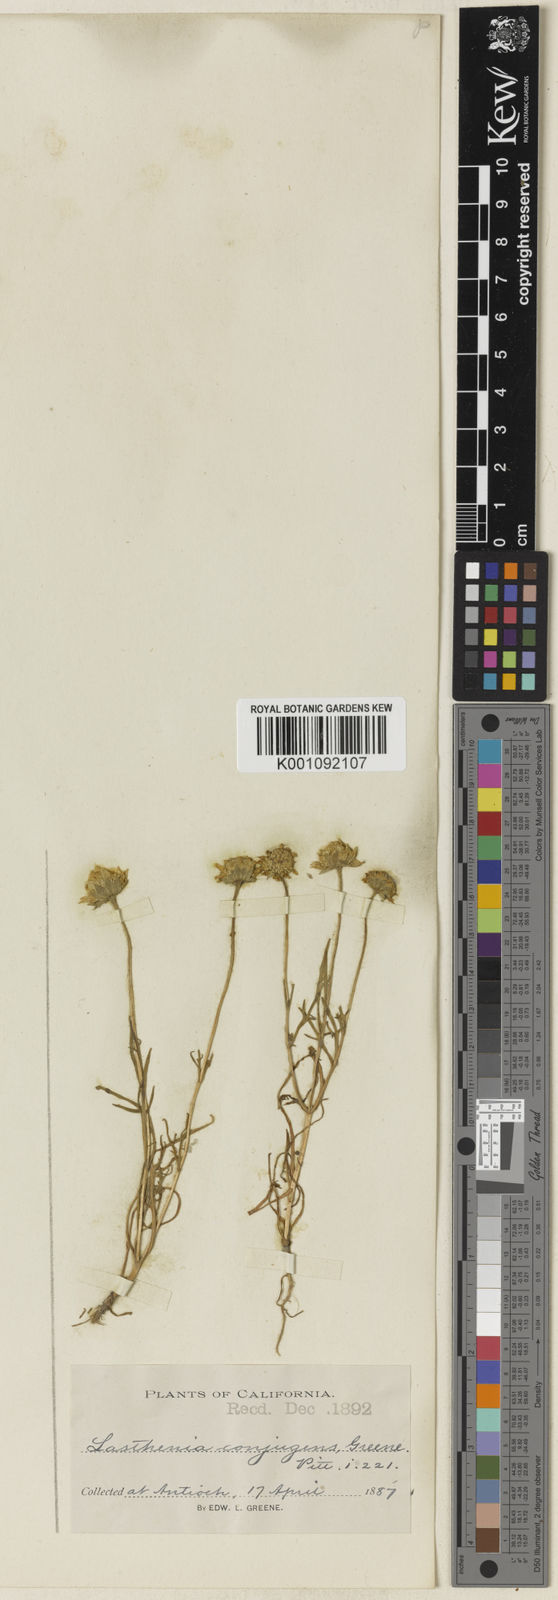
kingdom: Plantae
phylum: Tracheophyta
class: Magnoliopsida
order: Asterales
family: Asteraceae
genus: Lasthenia
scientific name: Lasthenia fremontii
